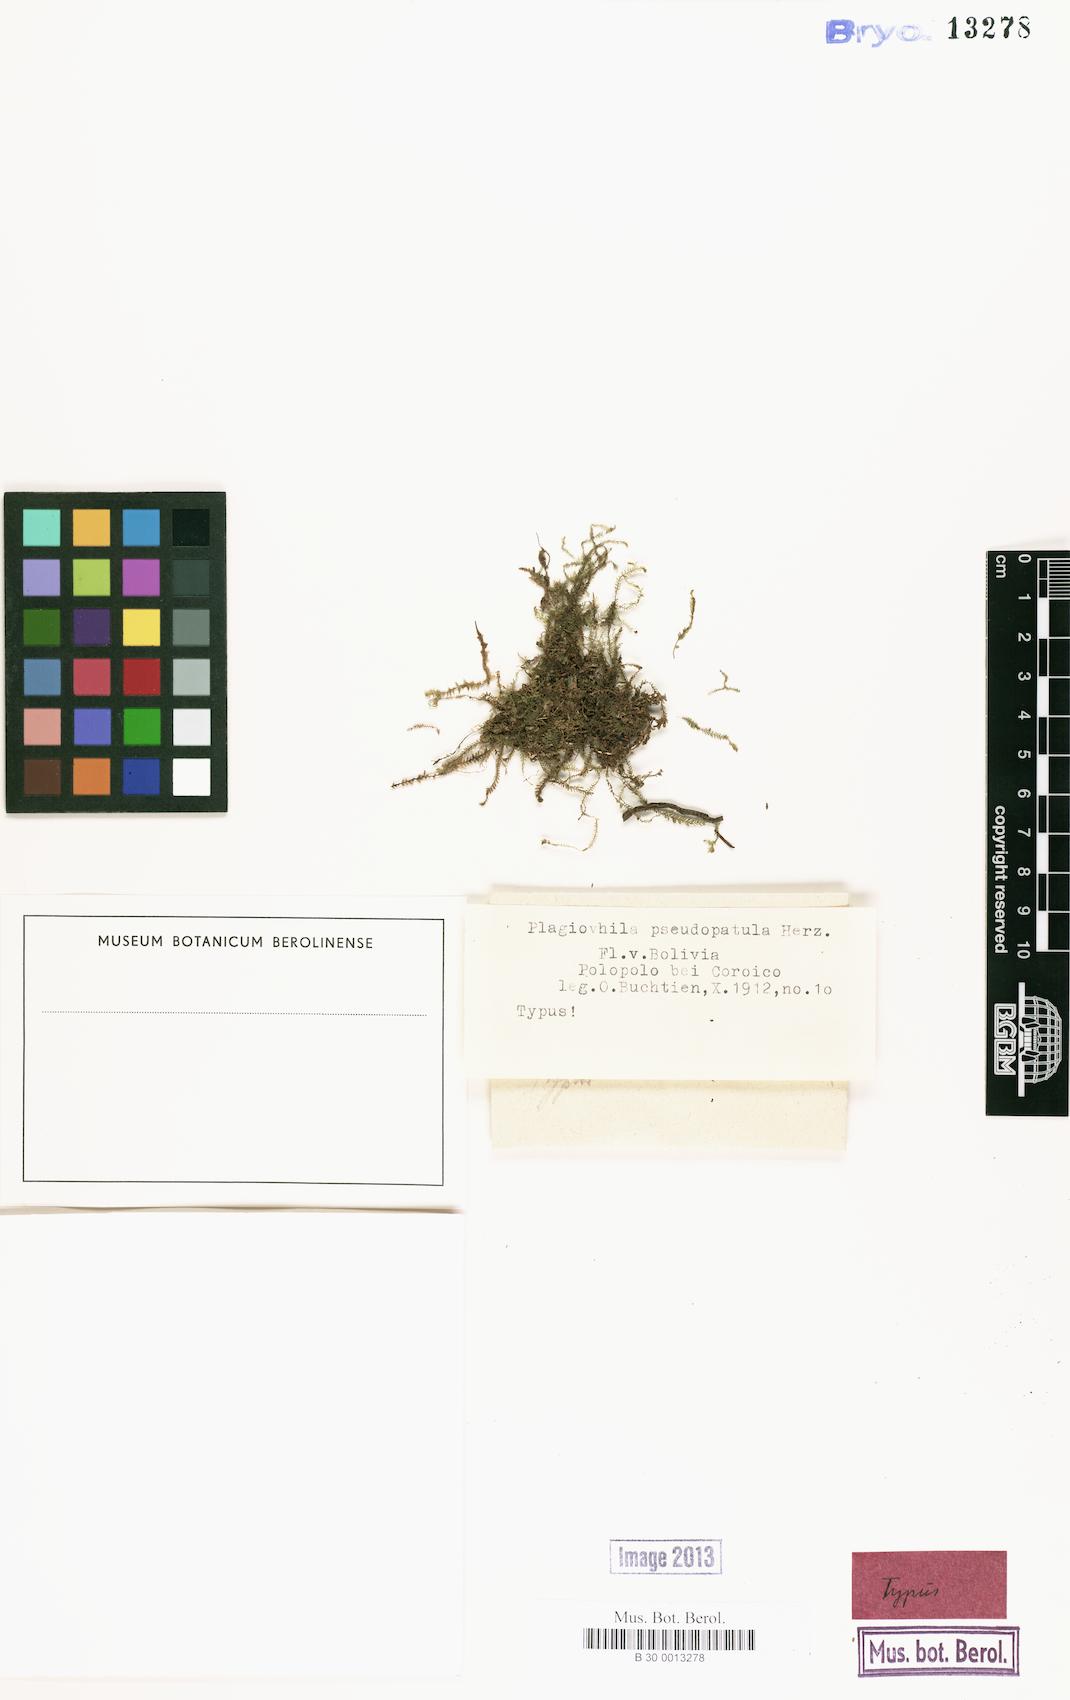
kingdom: Plantae
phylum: Marchantiophyta
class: Jungermanniopsida
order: Jungermanniales
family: Plagiochilaceae
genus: Plagiochila
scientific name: Plagiochila laetevirens
